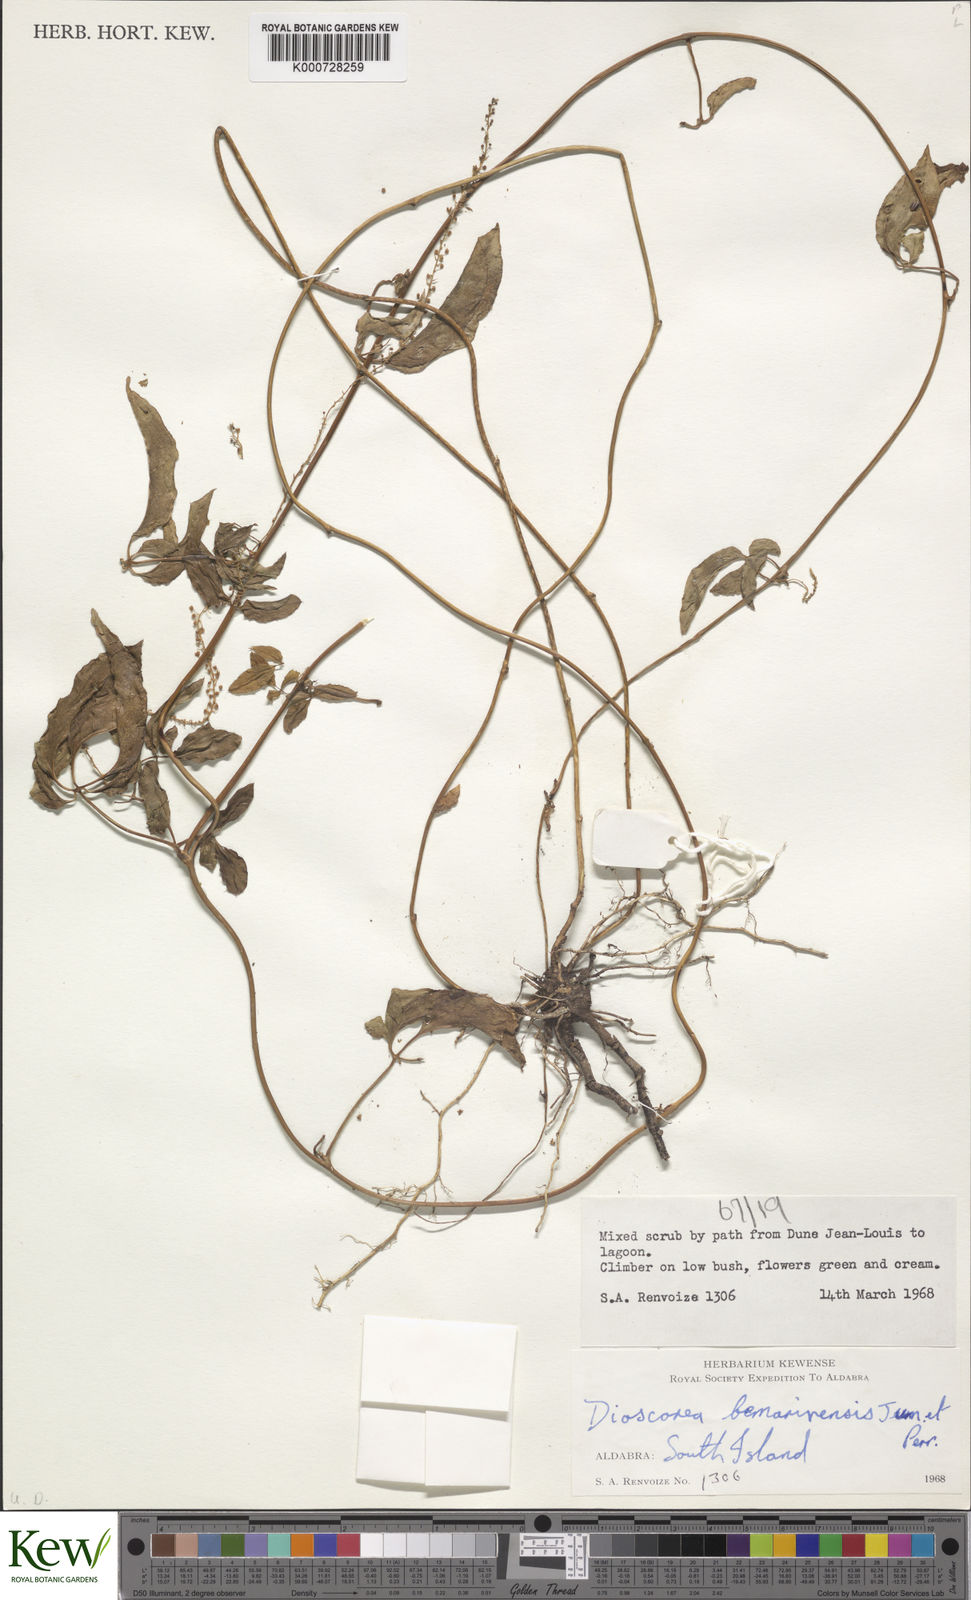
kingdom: Plantae
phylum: Tracheophyta
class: Liliopsida
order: Dioscoreales
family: Dioscoreaceae
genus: Dioscorea
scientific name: Dioscorea bemarivensis
